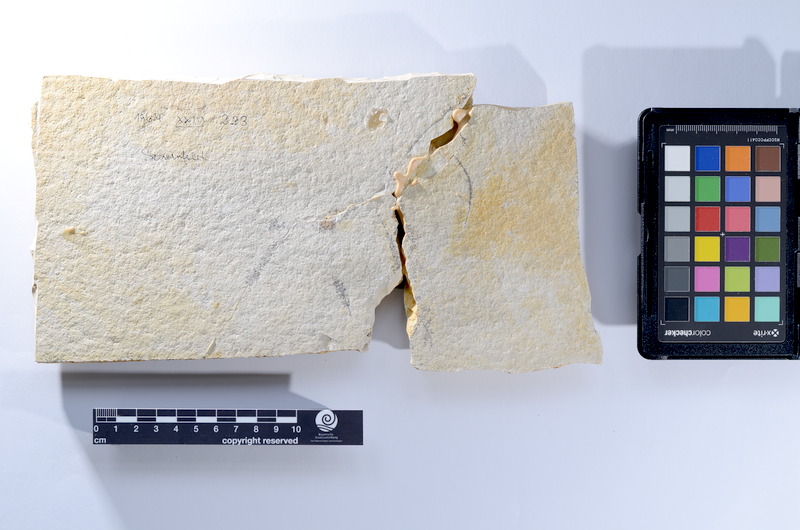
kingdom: Animalia
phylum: Chordata
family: Pholidophoridae
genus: Pholidophorus
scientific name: Pholidophorus
